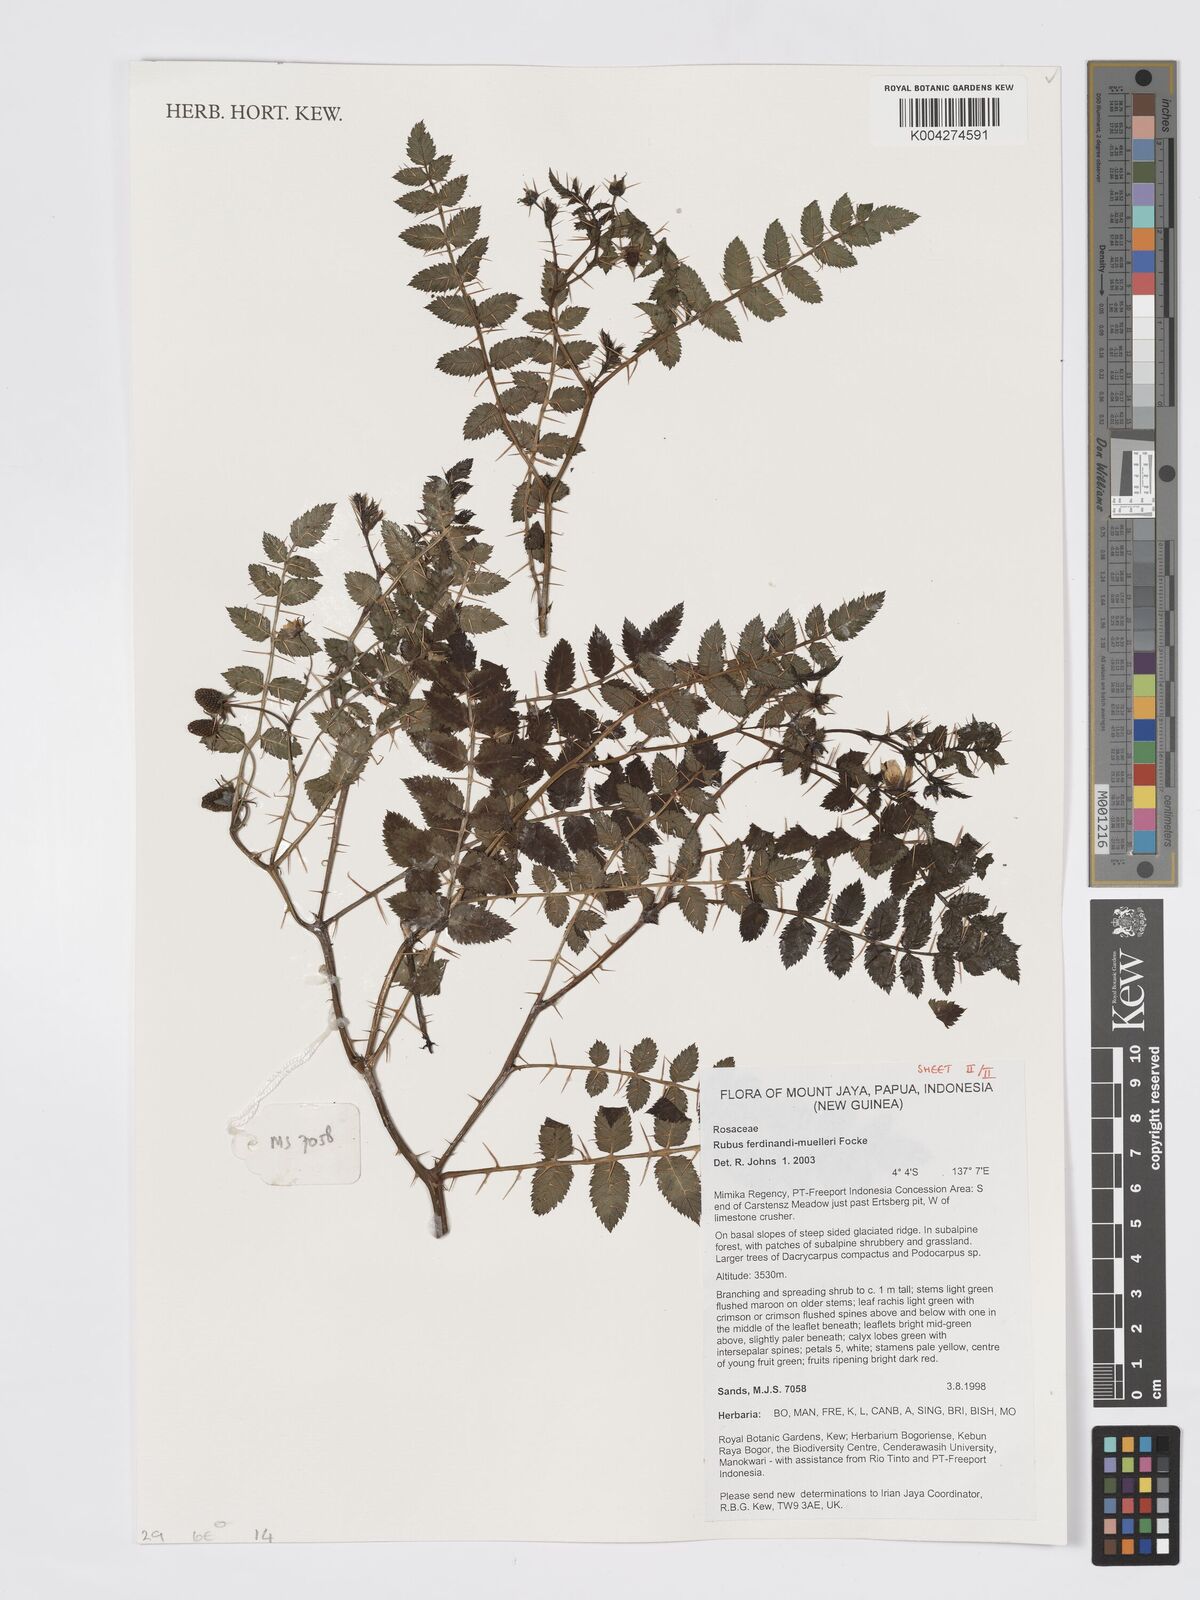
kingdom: Plantae
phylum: Tracheophyta
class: Magnoliopsida
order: Rosales
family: Rosaceae
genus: Rubus
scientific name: Rubus ferdinandimuelleri
